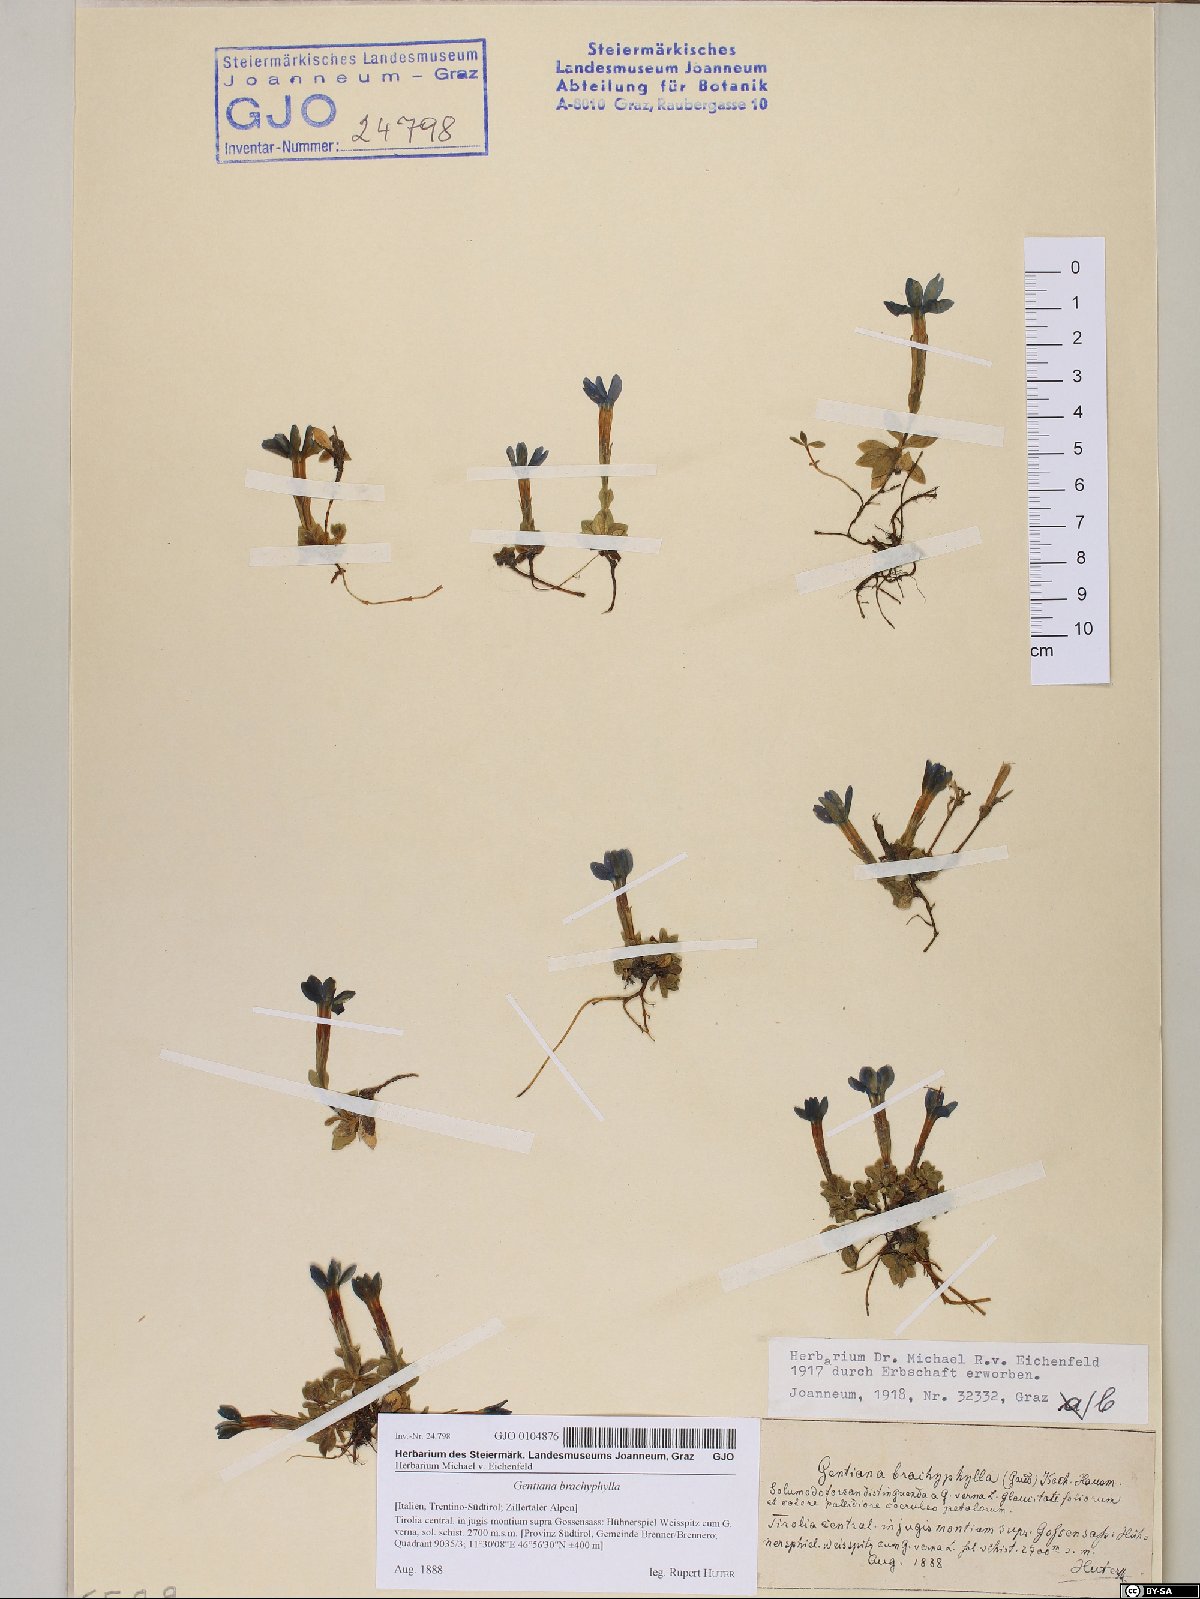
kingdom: Plantae
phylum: Tracheophyta
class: Magnoliopsida
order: Gentianales
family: Gentianaceae
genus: Gentiana
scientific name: Gentiana brachyphylla
